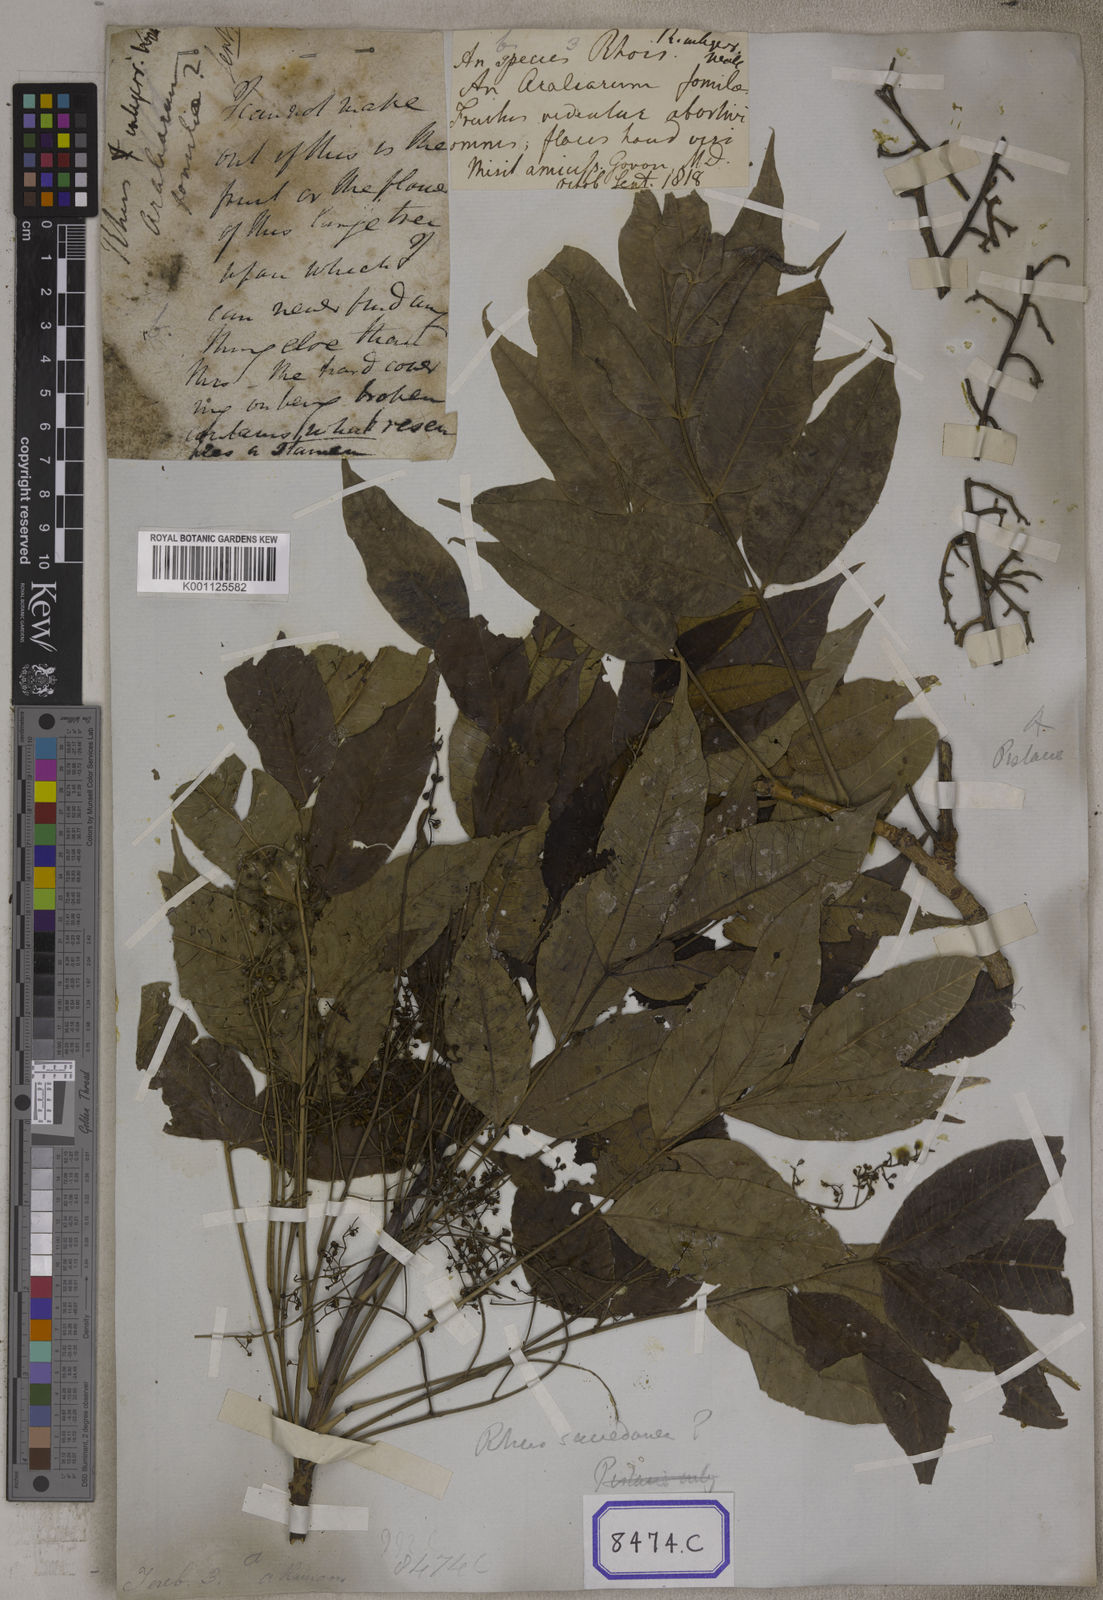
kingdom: Plantae
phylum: Tracheophyta
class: Magnoliopsida
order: Sapindales
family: Anacardiaceae
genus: Pistacia
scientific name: Pistacia chinensis
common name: Chinese pistache
